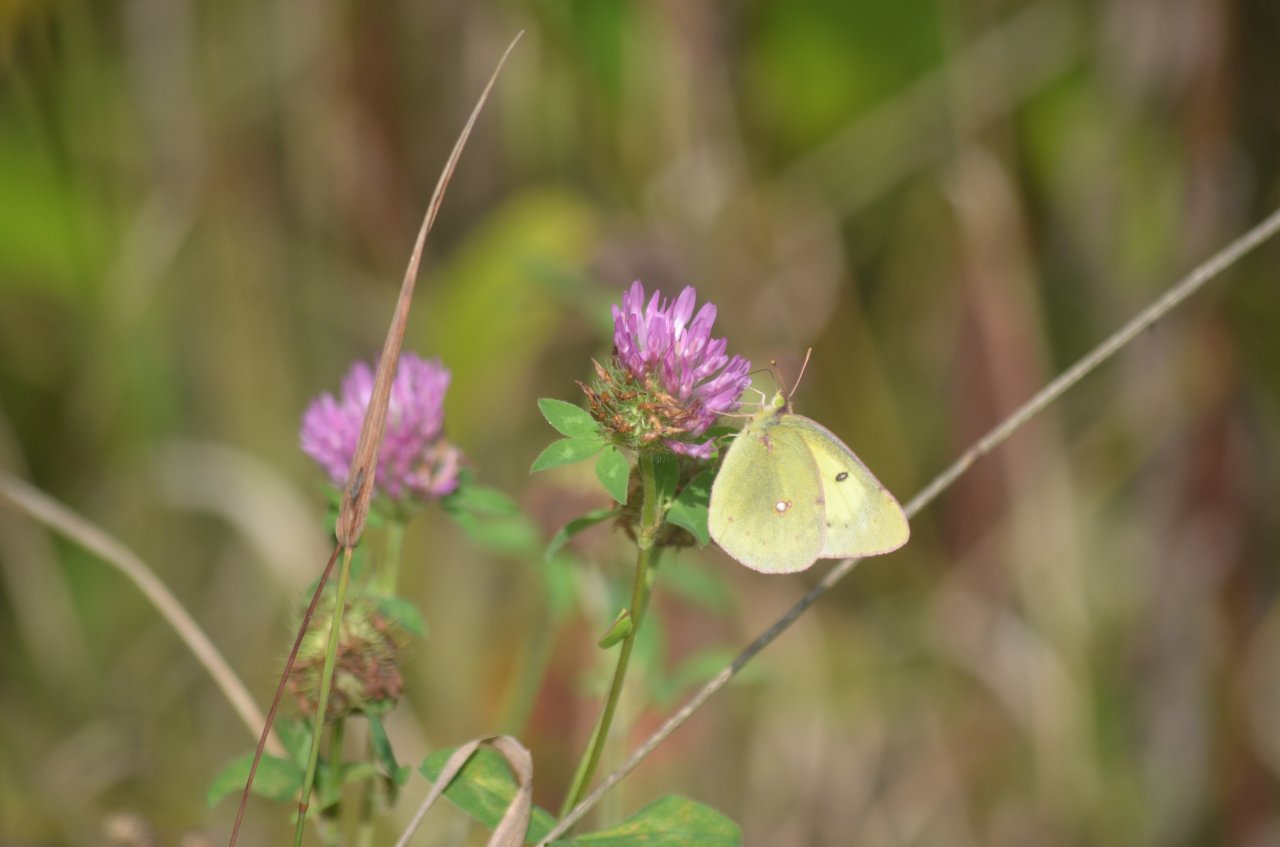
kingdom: Animalia
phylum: Arthropoda
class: Insecta
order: Lepidoptera
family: Pieridae
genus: Colias
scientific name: Colias philodice
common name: Clouded Sulphur
